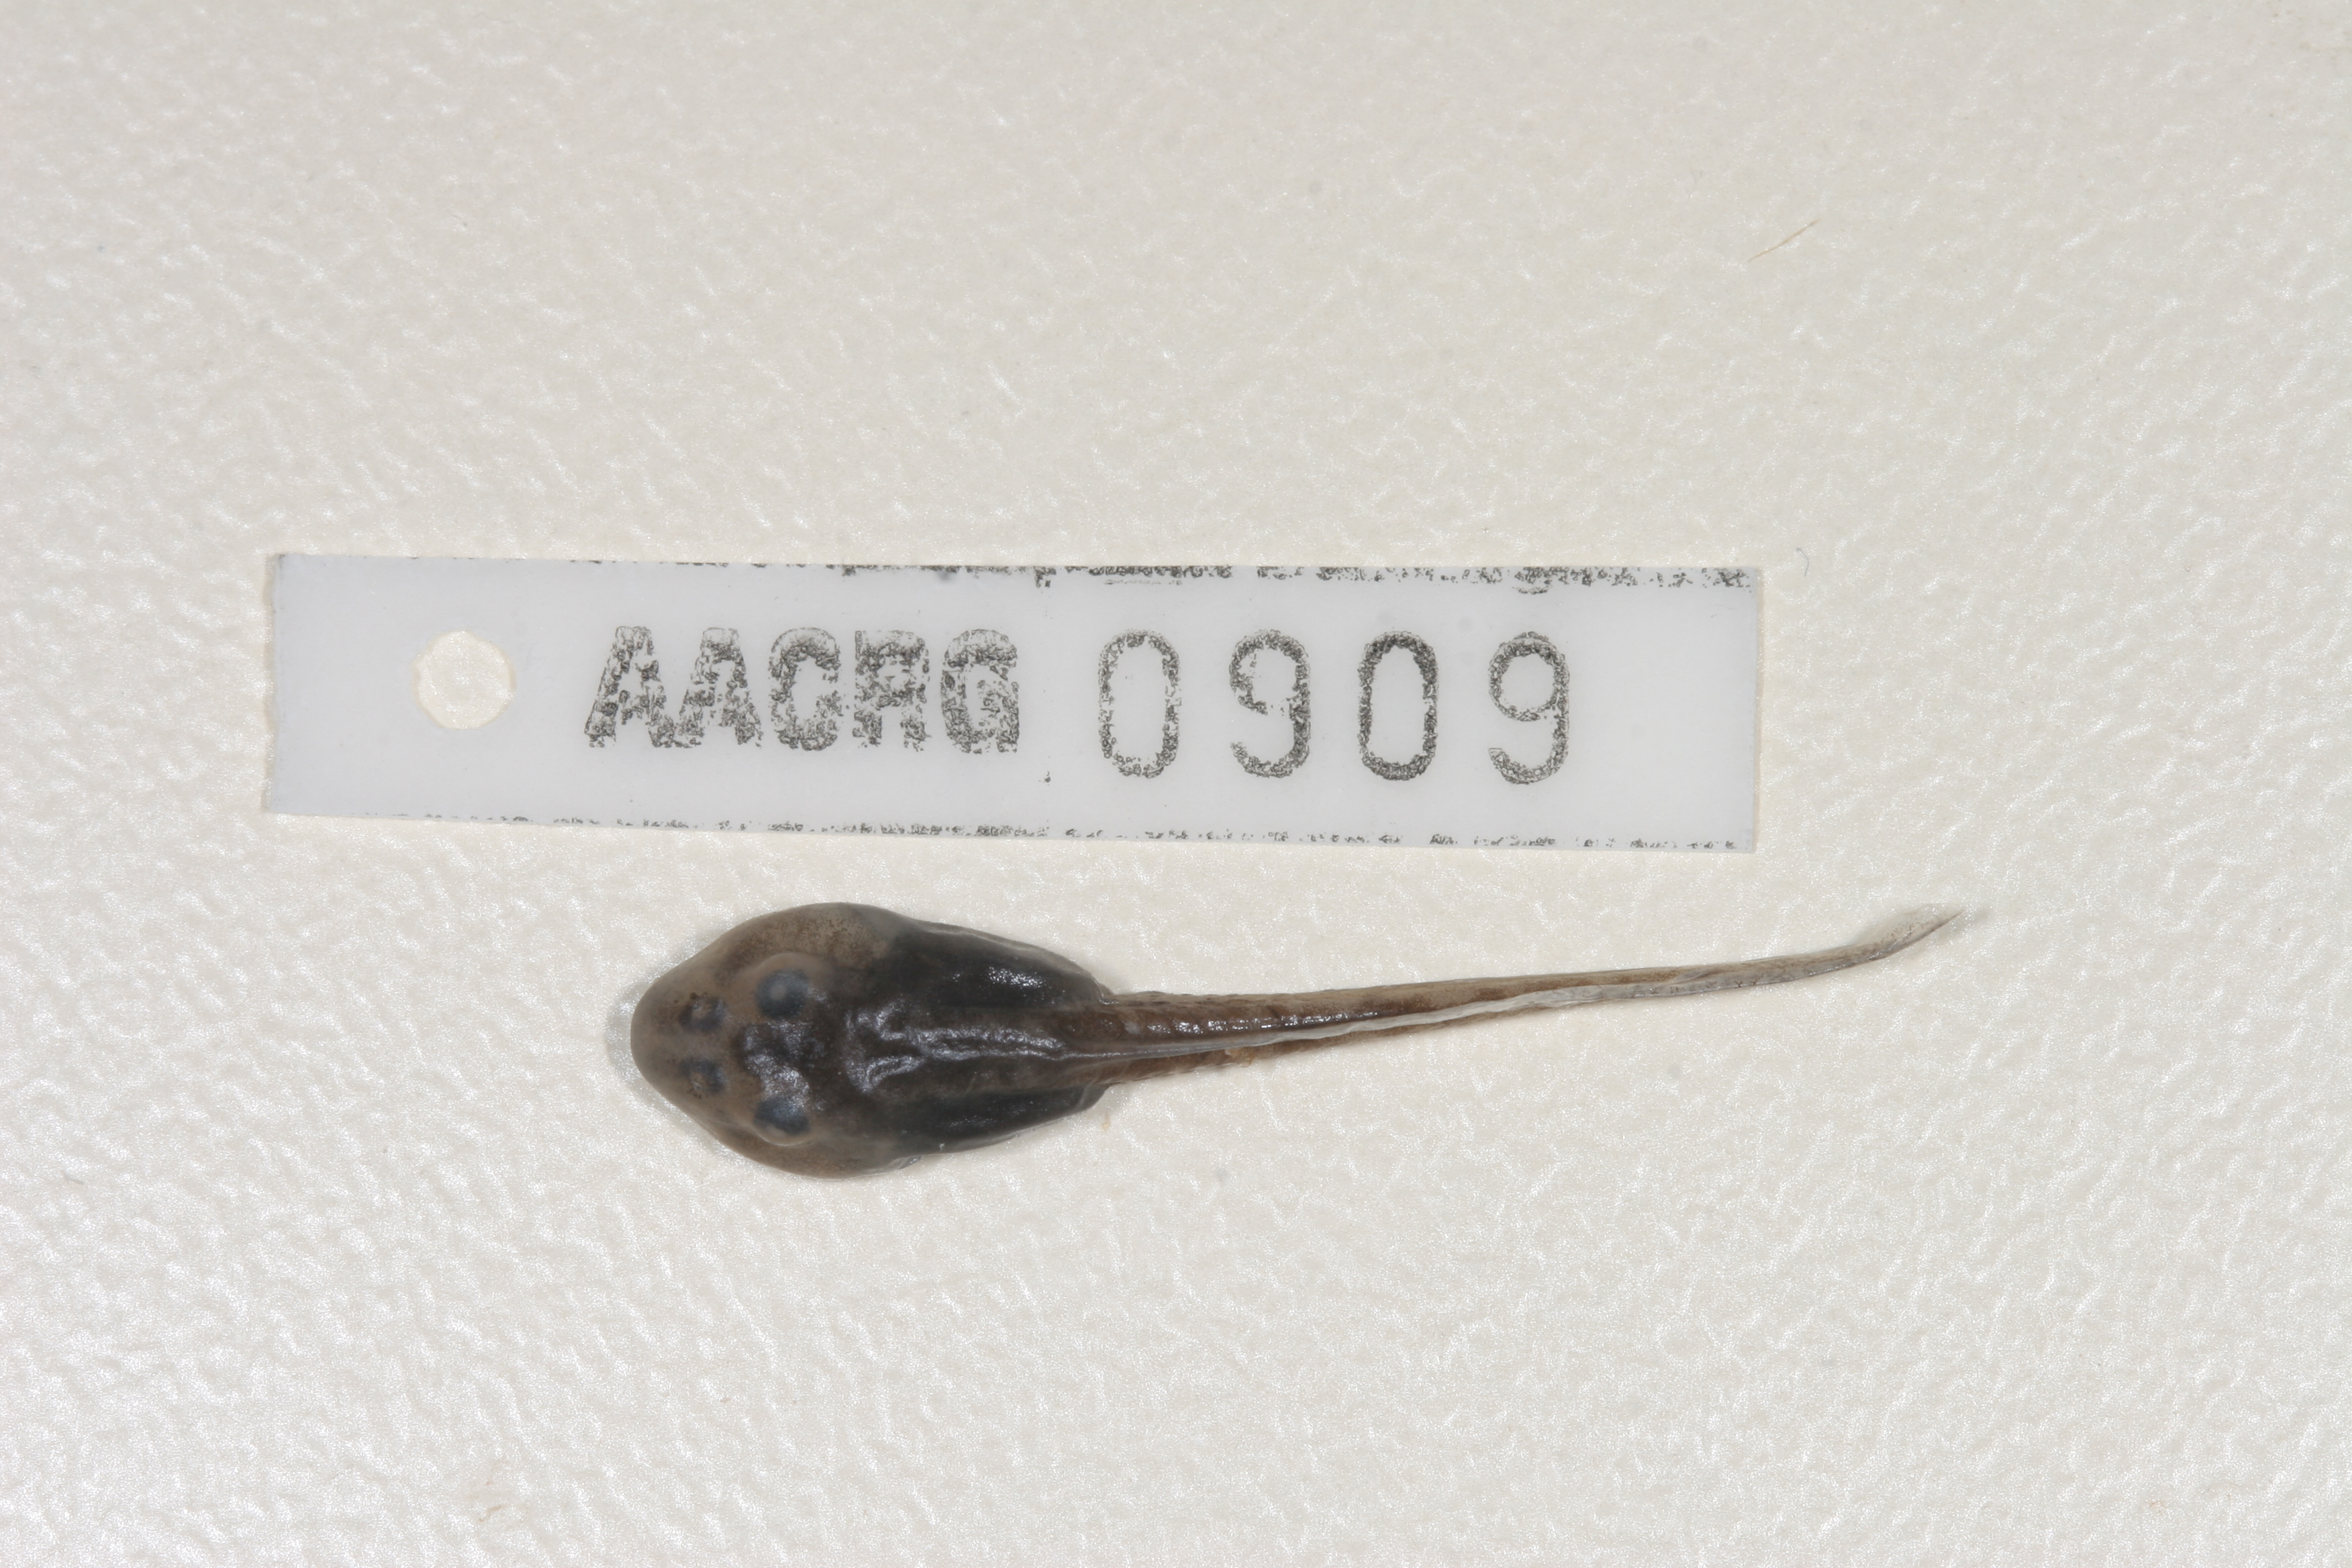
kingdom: Animalia
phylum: Chordata
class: Amphibia
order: Anura
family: Pyxicephalidae
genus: Strongylopus
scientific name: Strongylopus springbokensis
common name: Namaqua stream frog
